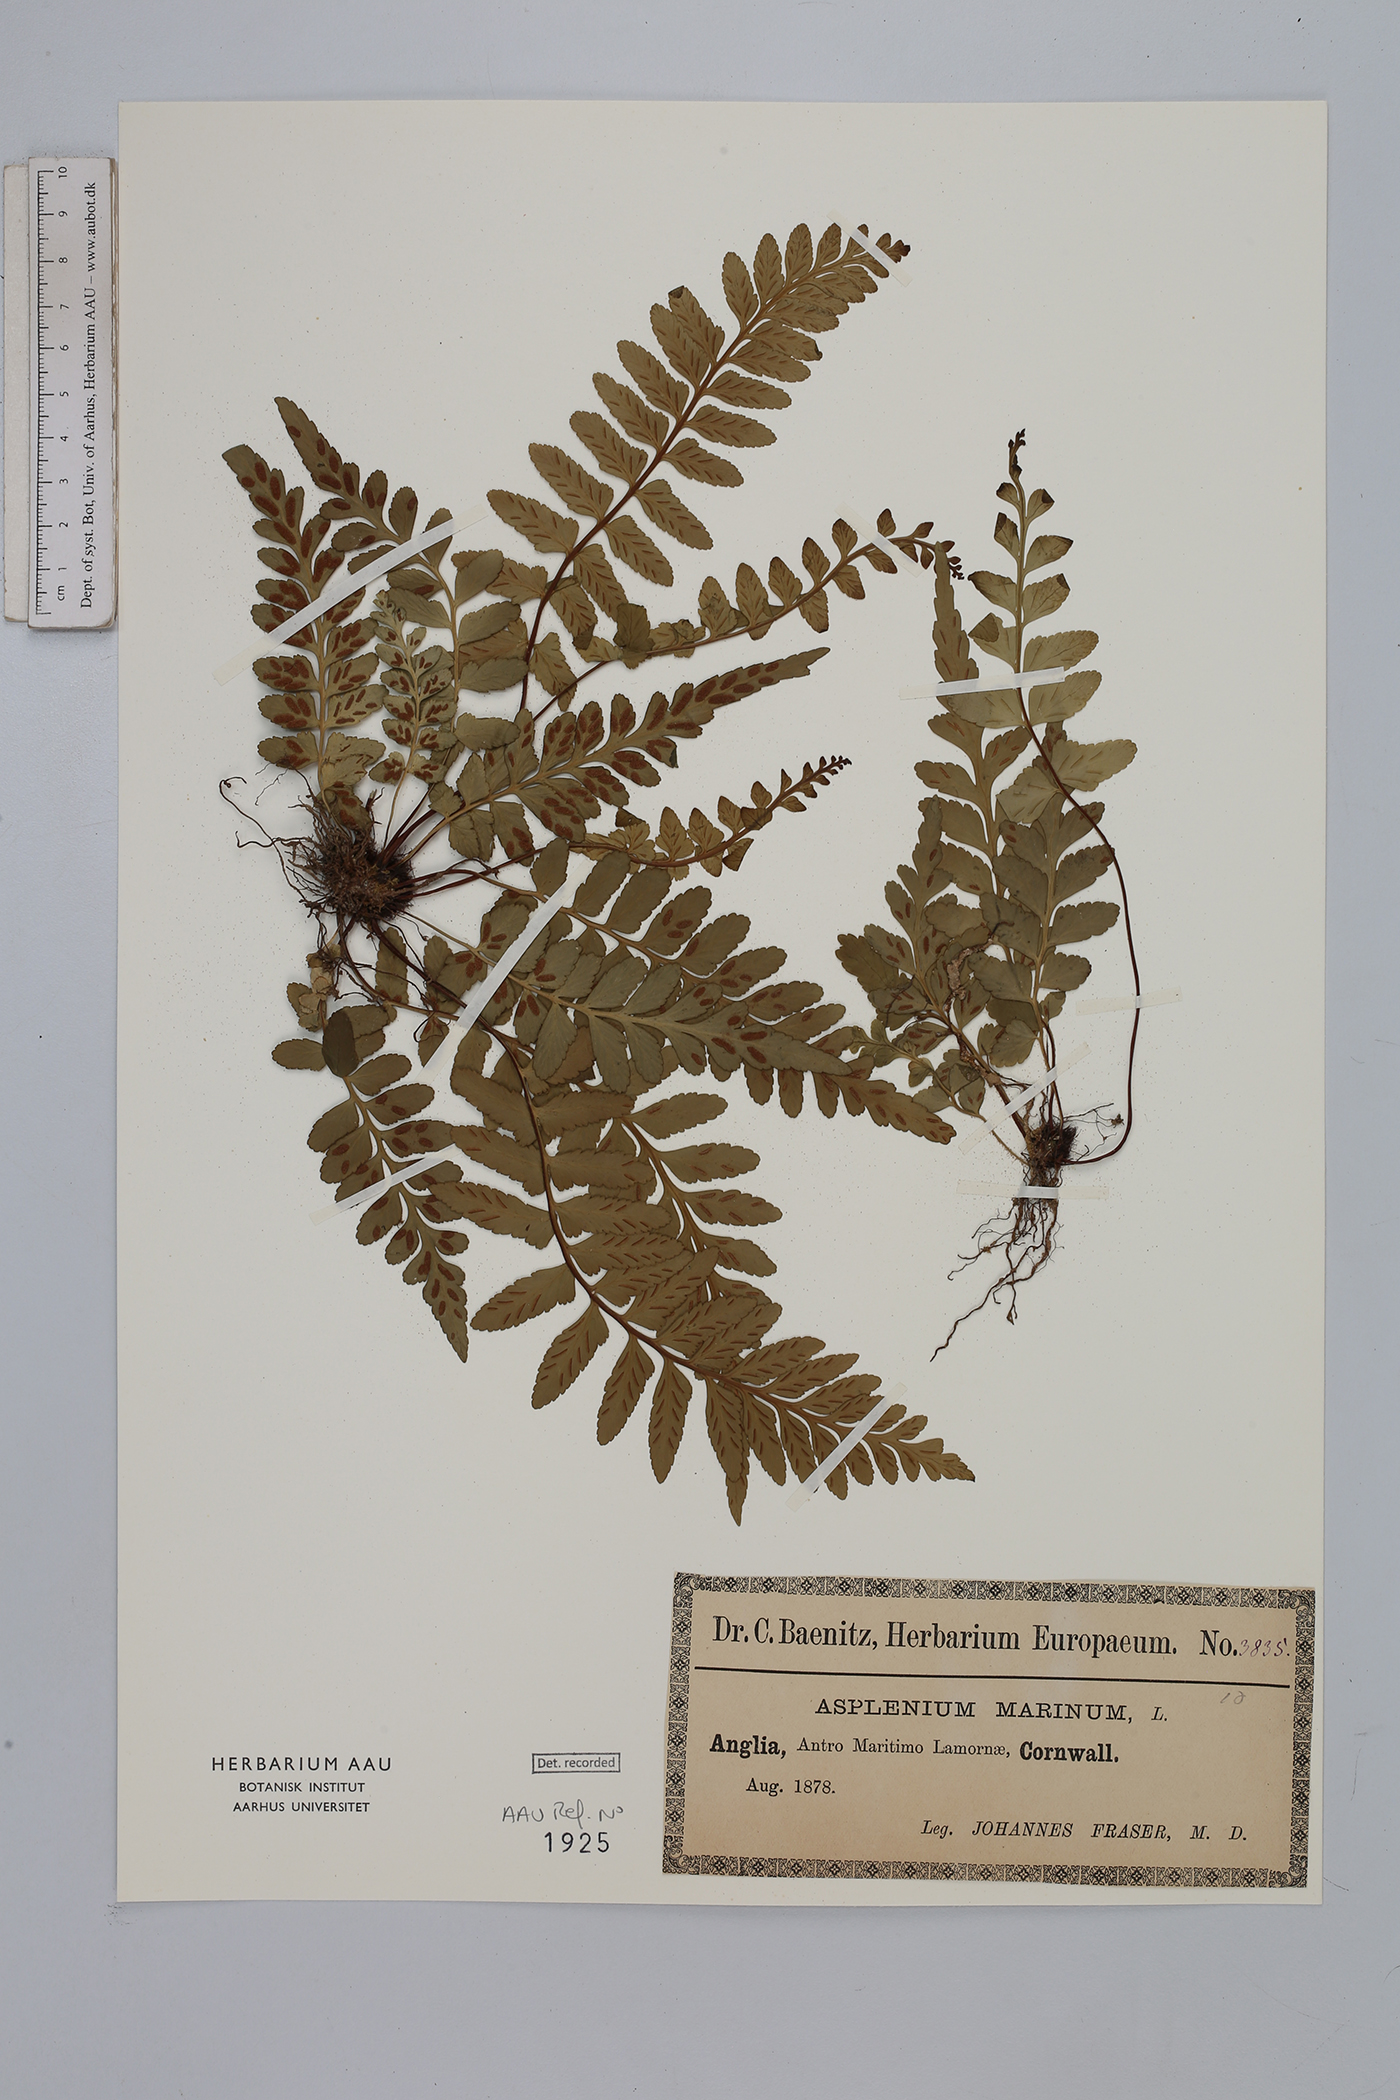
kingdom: Plantae
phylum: Tracheophyta
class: Polypodiopsida
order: Polypodiales
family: Aspleniaceae
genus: Asplenium
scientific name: Asplenium marinum
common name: Sea spleenwort
